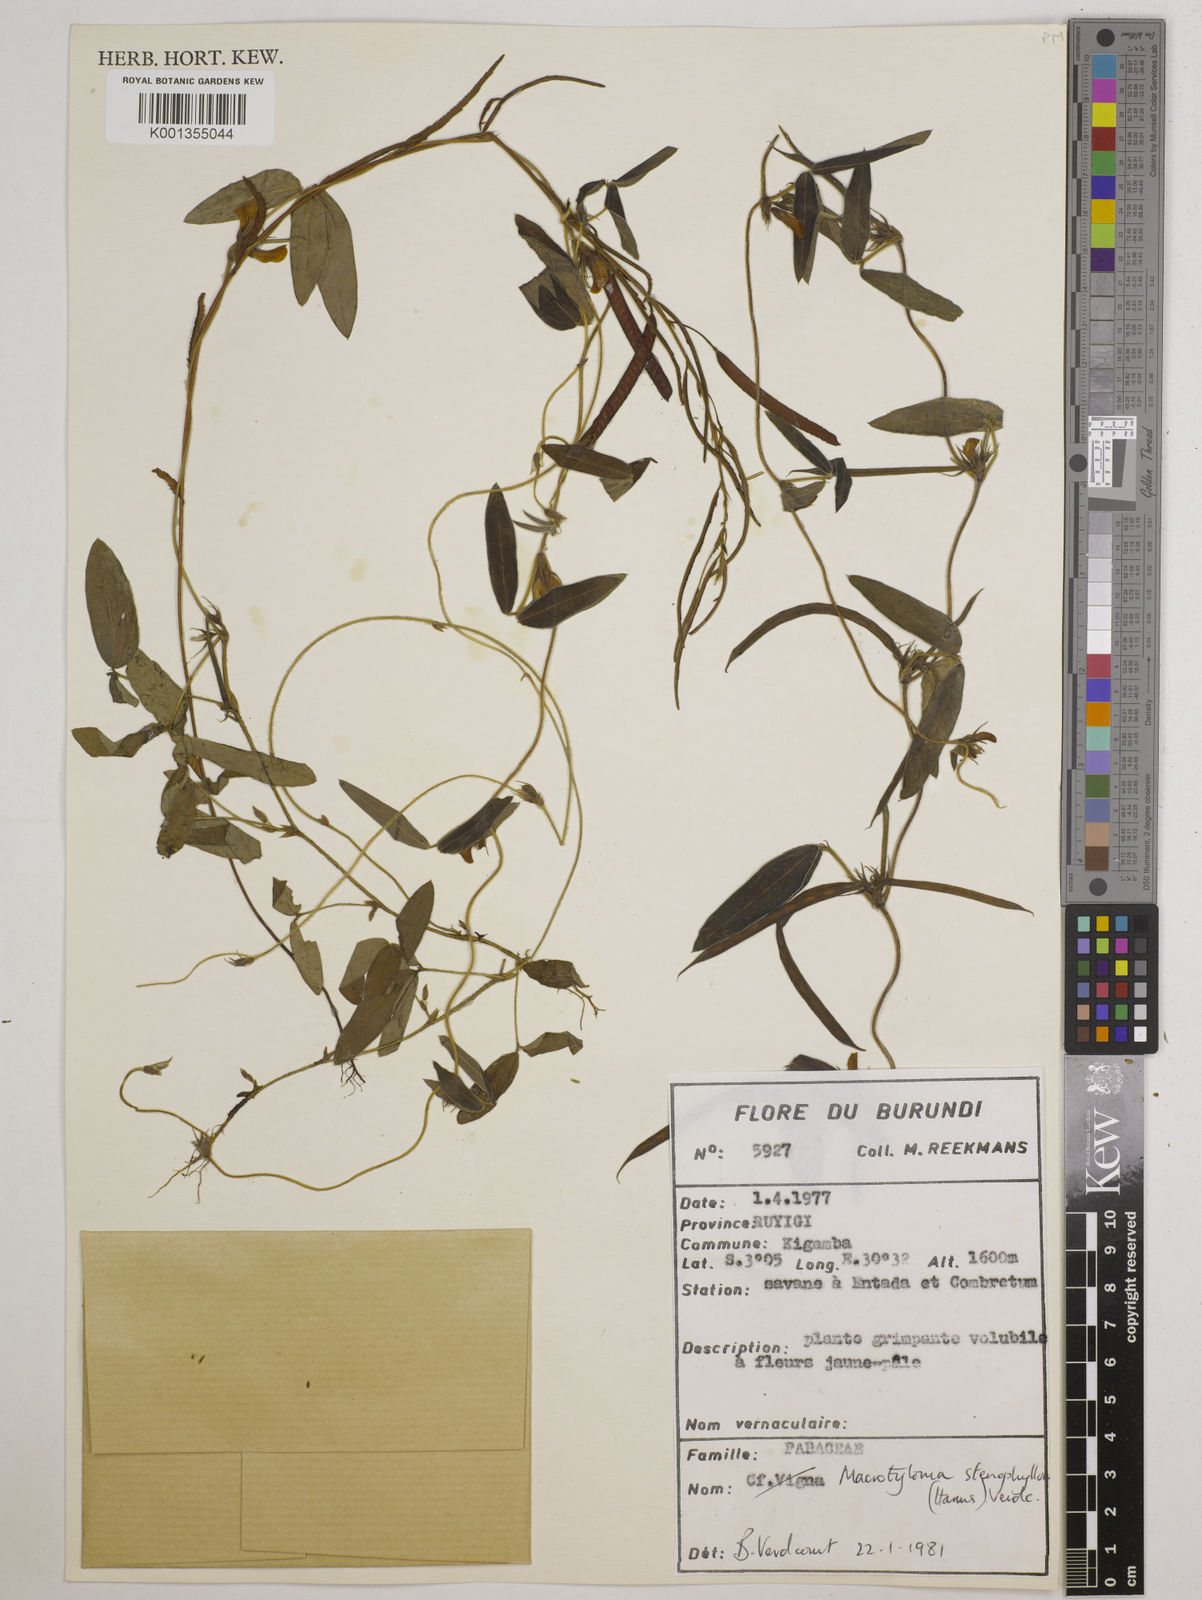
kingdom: Plantae
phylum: Tracheophyta
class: Magnoliopsida
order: Fabales
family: Fabaceae
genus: Macrotyloma
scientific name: Macrotyloma stenophyllum
